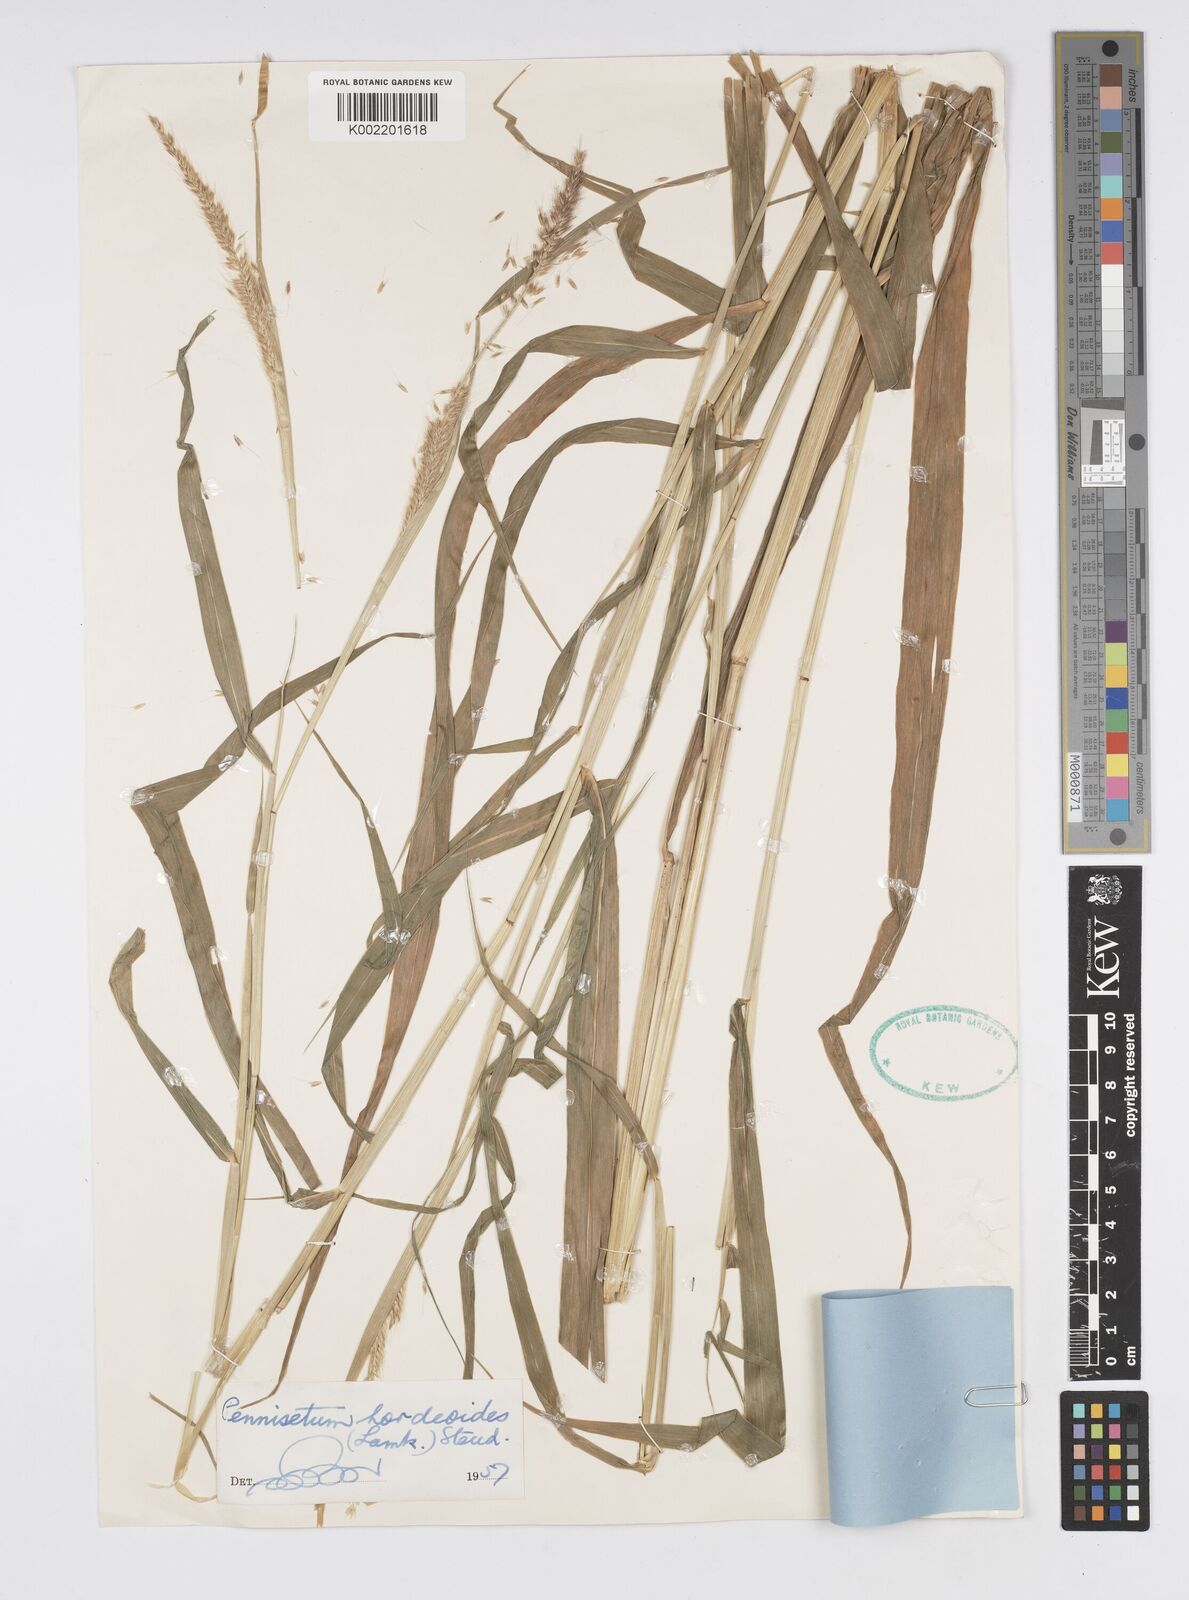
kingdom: Plantae
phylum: Tracheophyta
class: Liliopsida
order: Poales
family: Poaceae
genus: Cenchrus
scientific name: Cenchrus hordeoides
